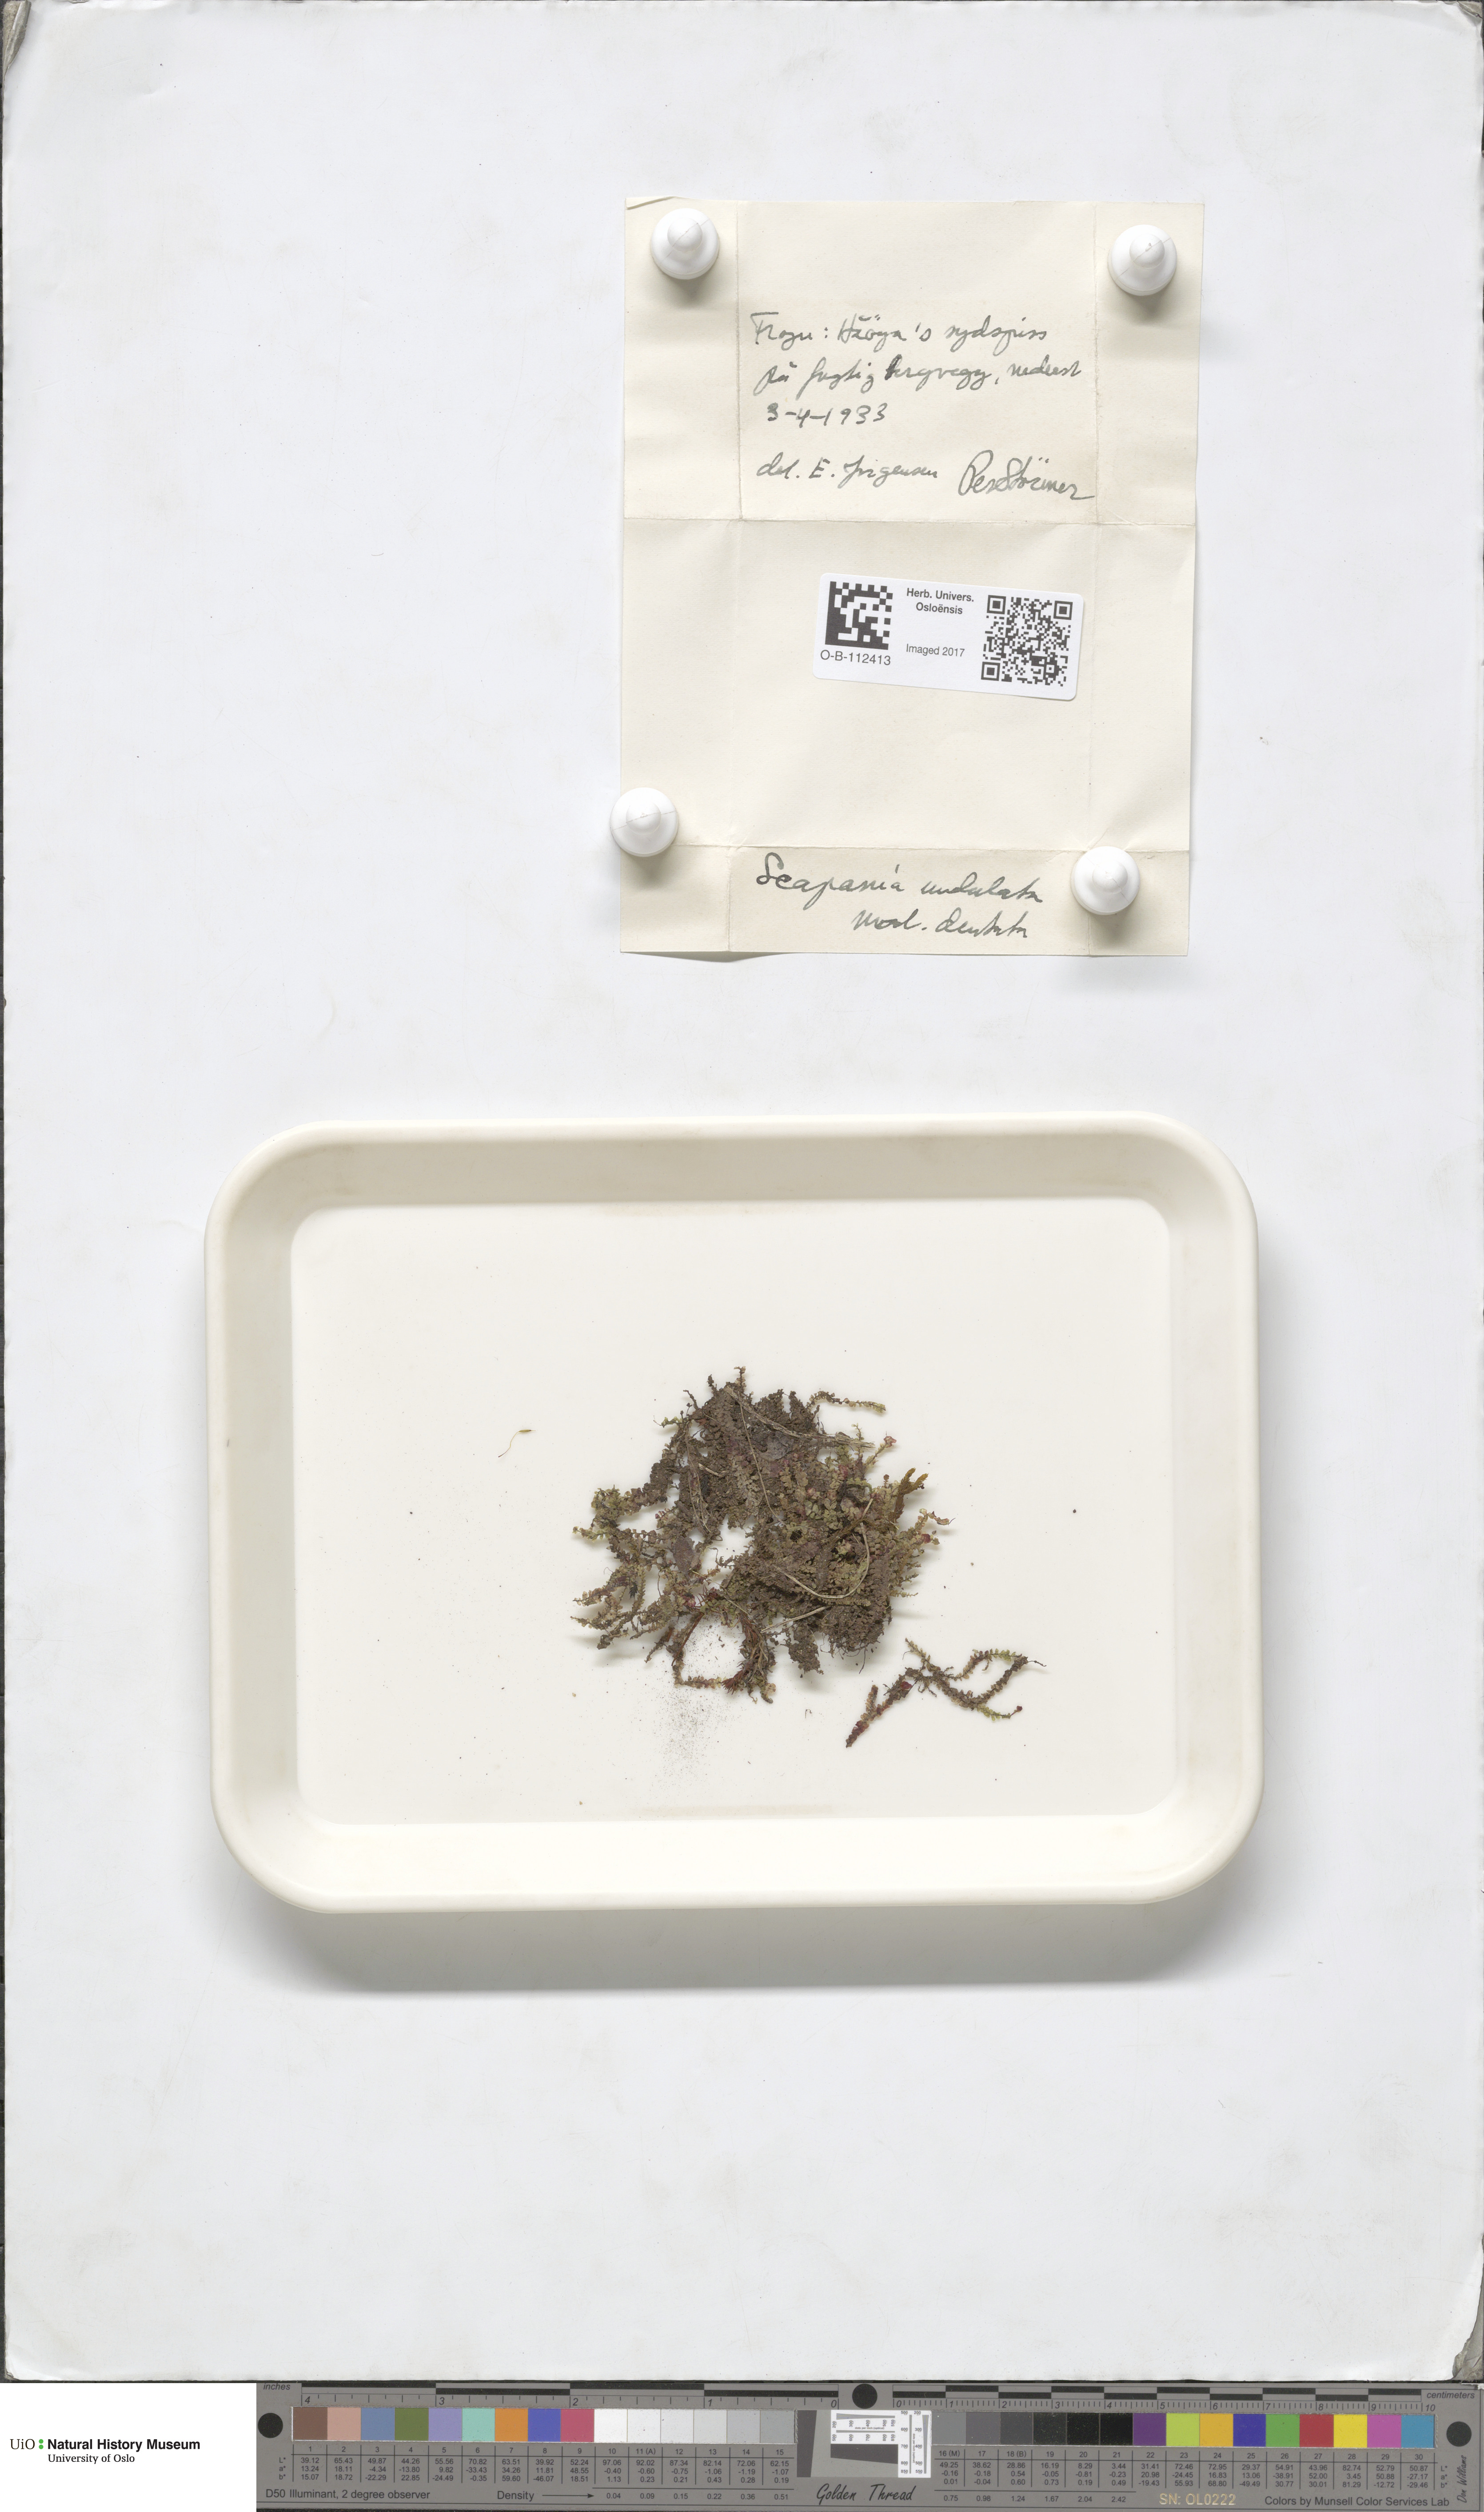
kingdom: Plantae
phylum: Marchantiophyta
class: Jungermanniopsida
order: Jungermanniales
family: Scapaniaceae
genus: Scapania
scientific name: Scapania undulata
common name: Water earwort
